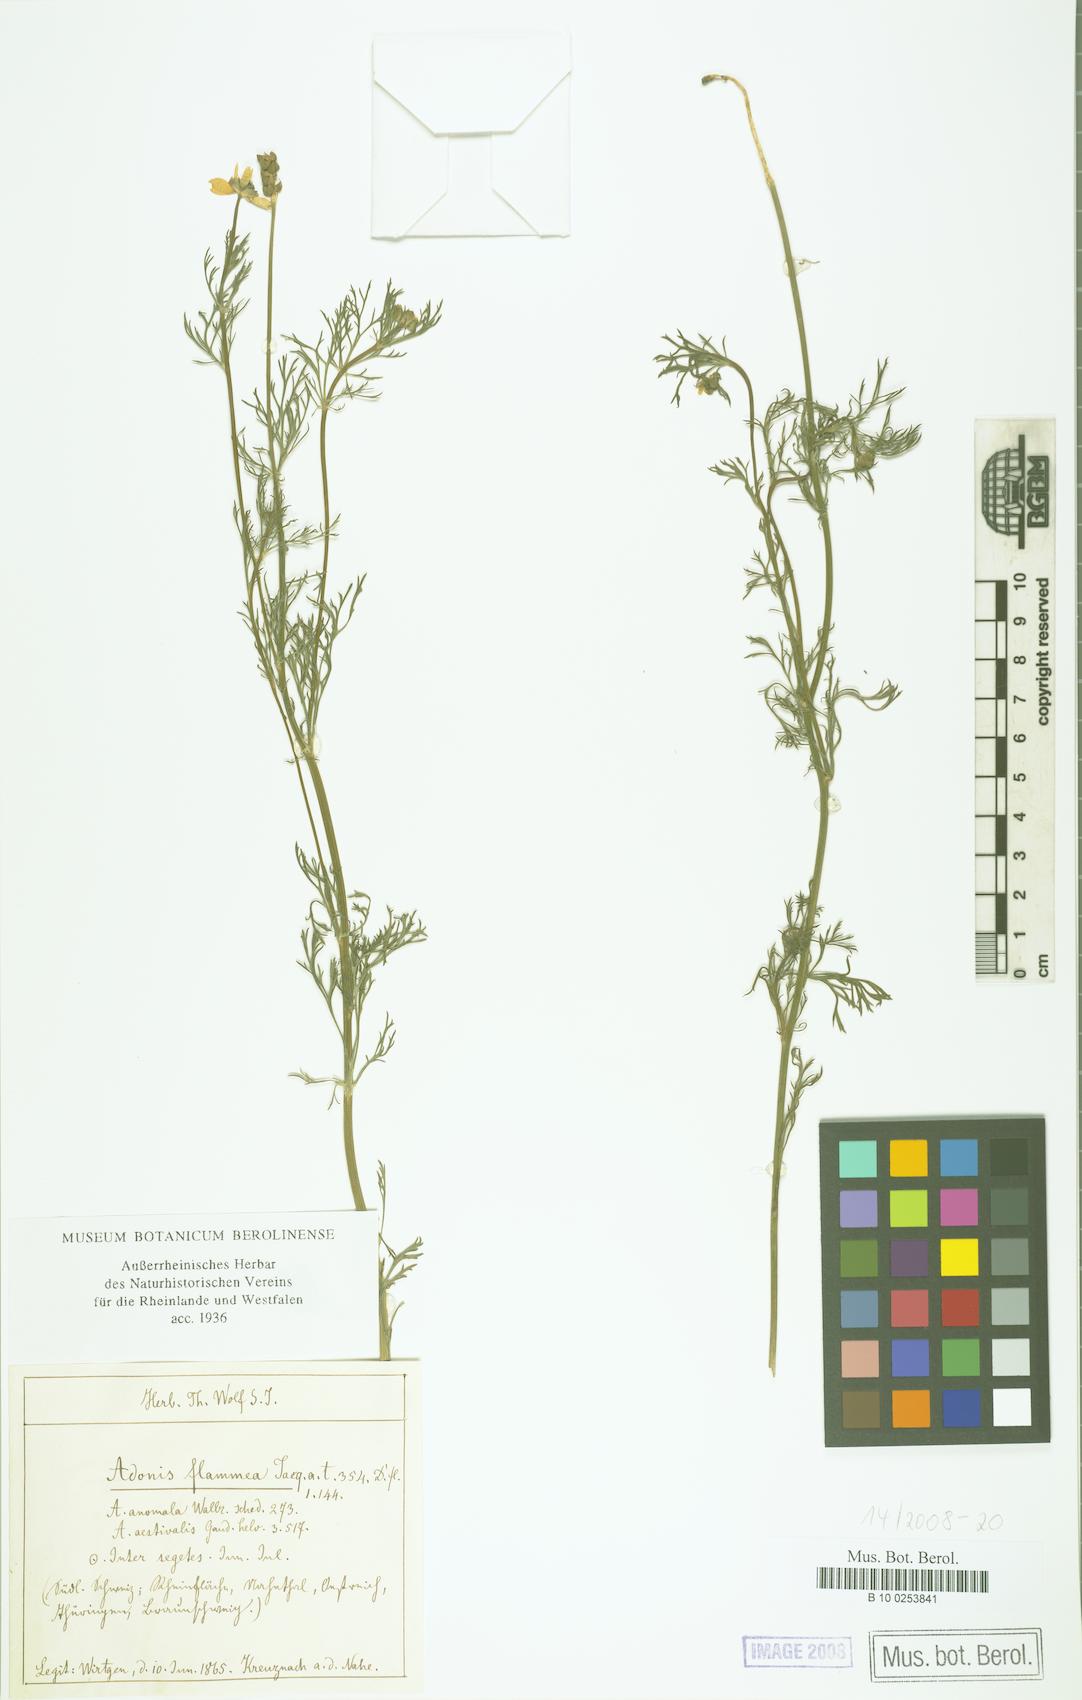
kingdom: Plantae
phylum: Tracheophyta
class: Magnoliopsida
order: Ranunculales
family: Ranunculaceae
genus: Adonis
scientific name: Adonis flammea
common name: Large pheasant's-eye
